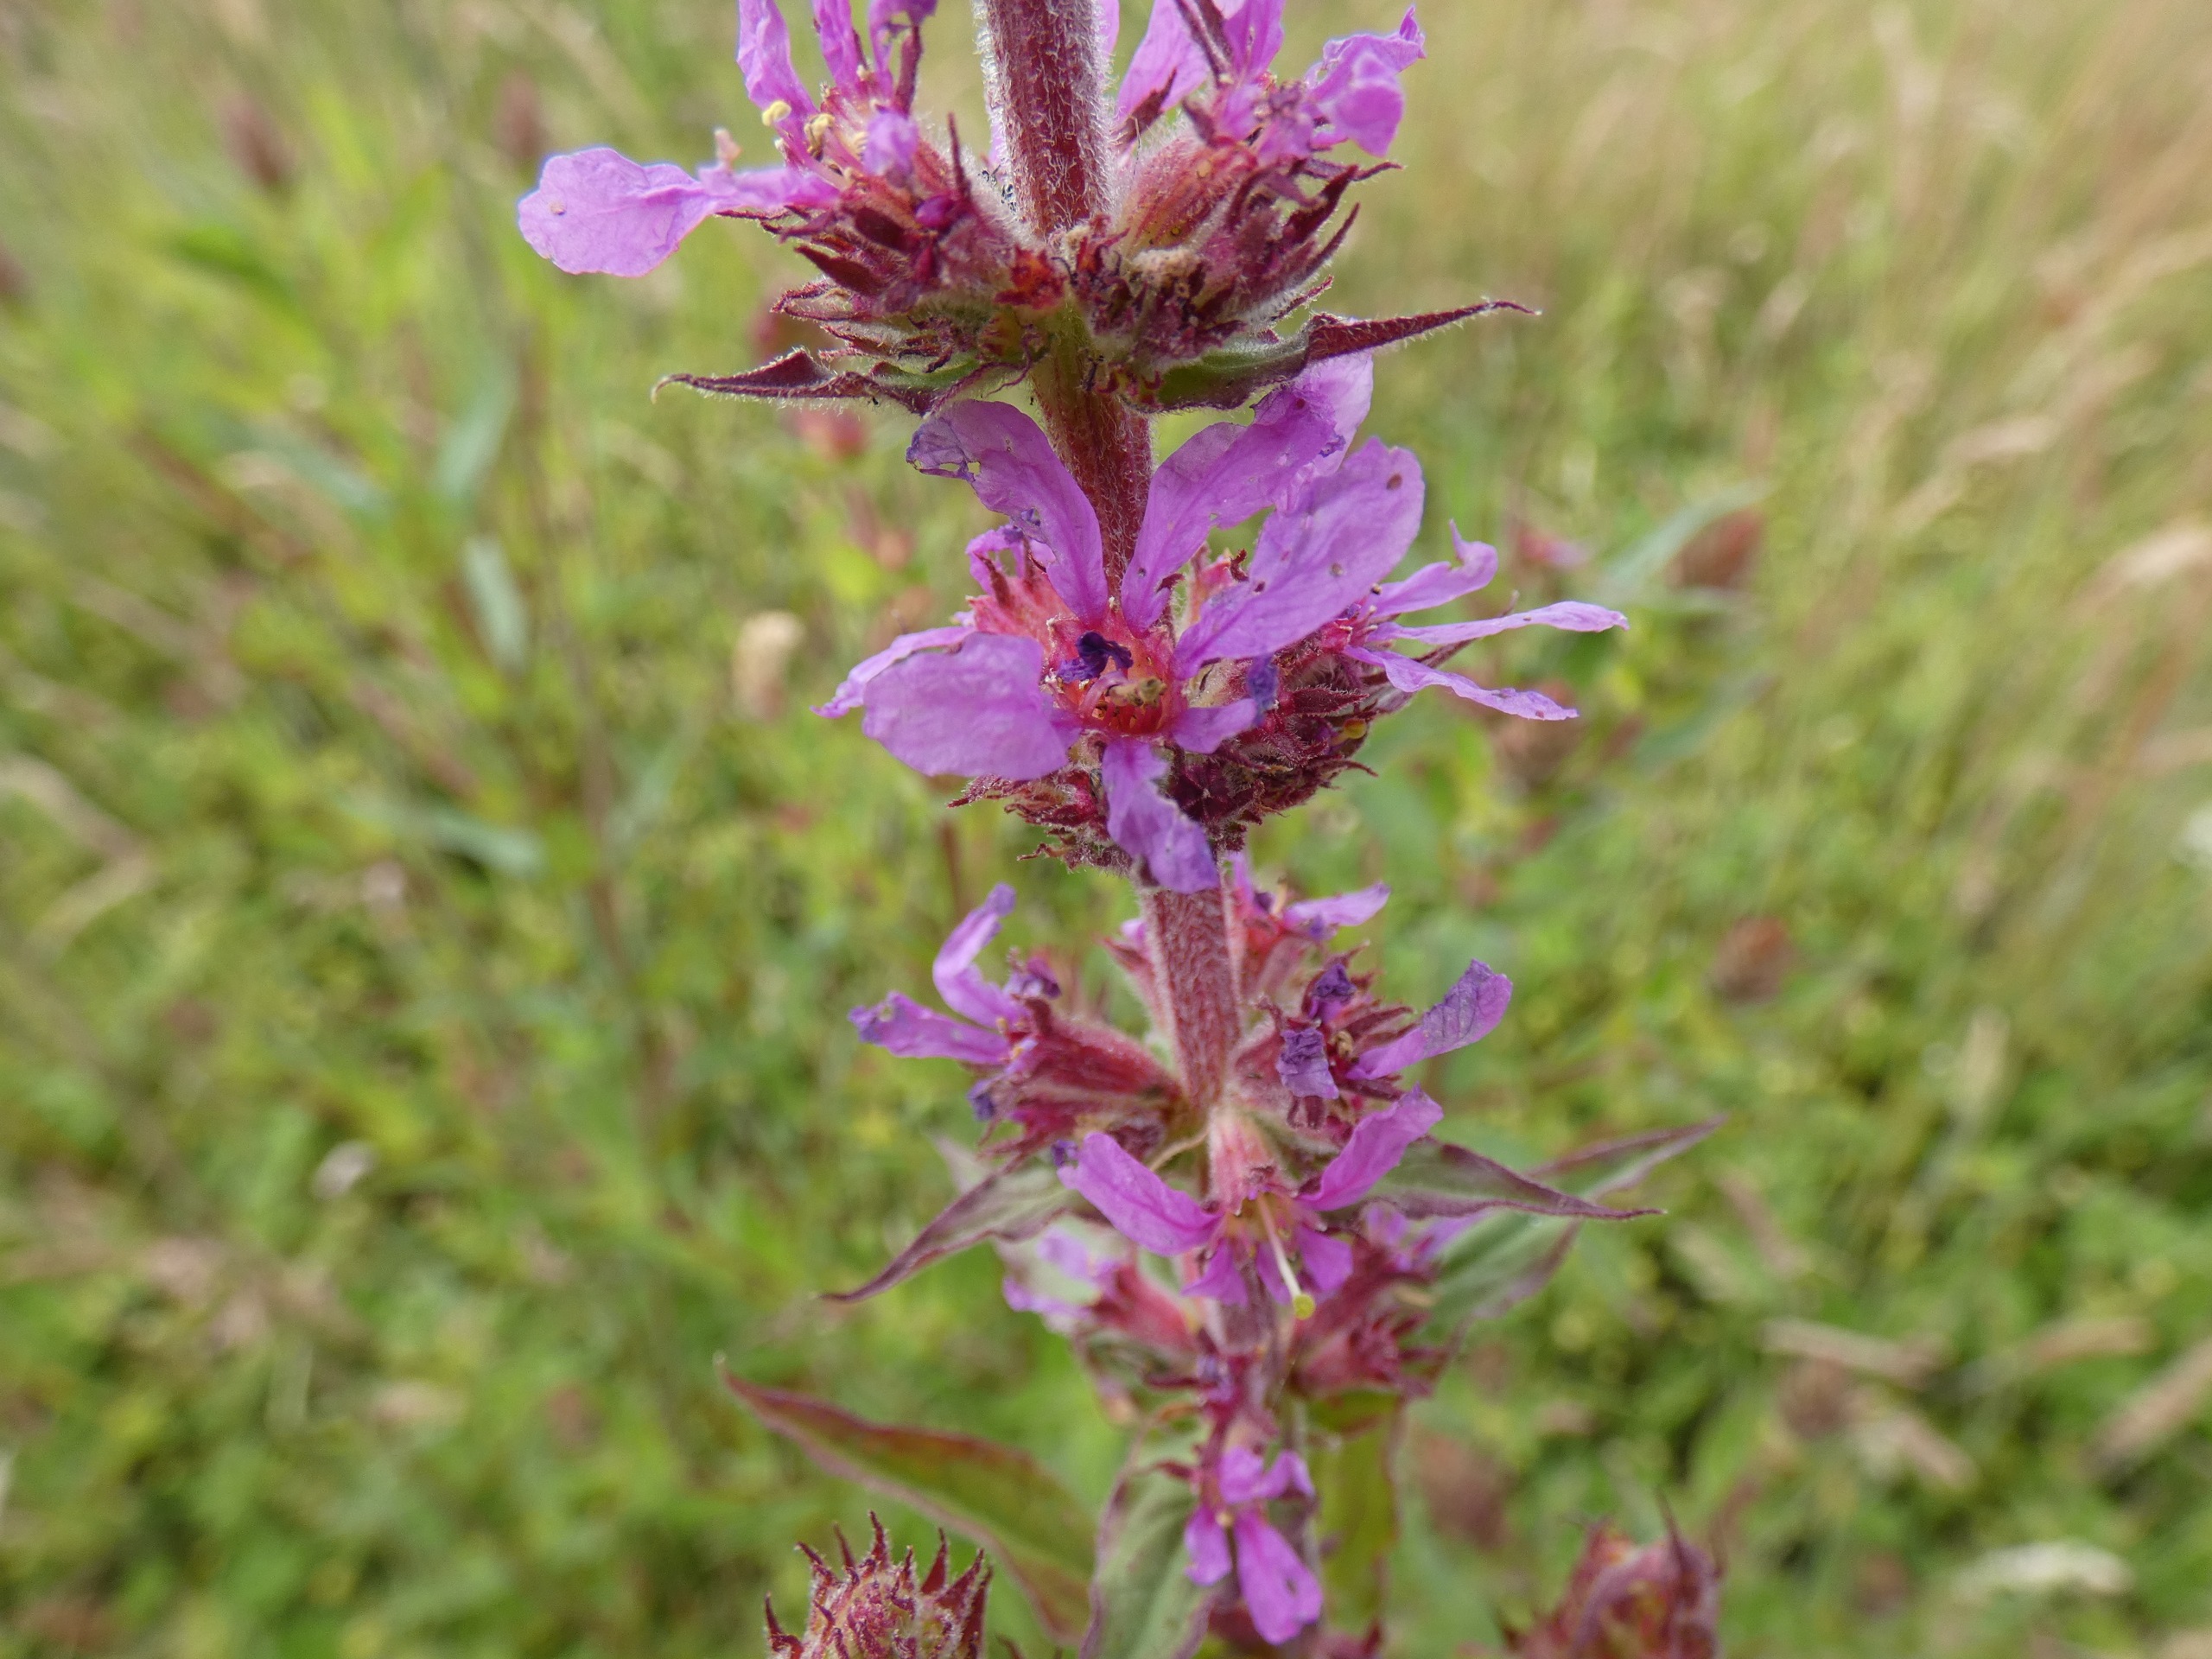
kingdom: Plantae
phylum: Tracheophyta
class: Magnoliopsida
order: Myrtales
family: Lythraceae
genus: Lythrum
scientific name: Lythrum salicaria
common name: Kattehale
